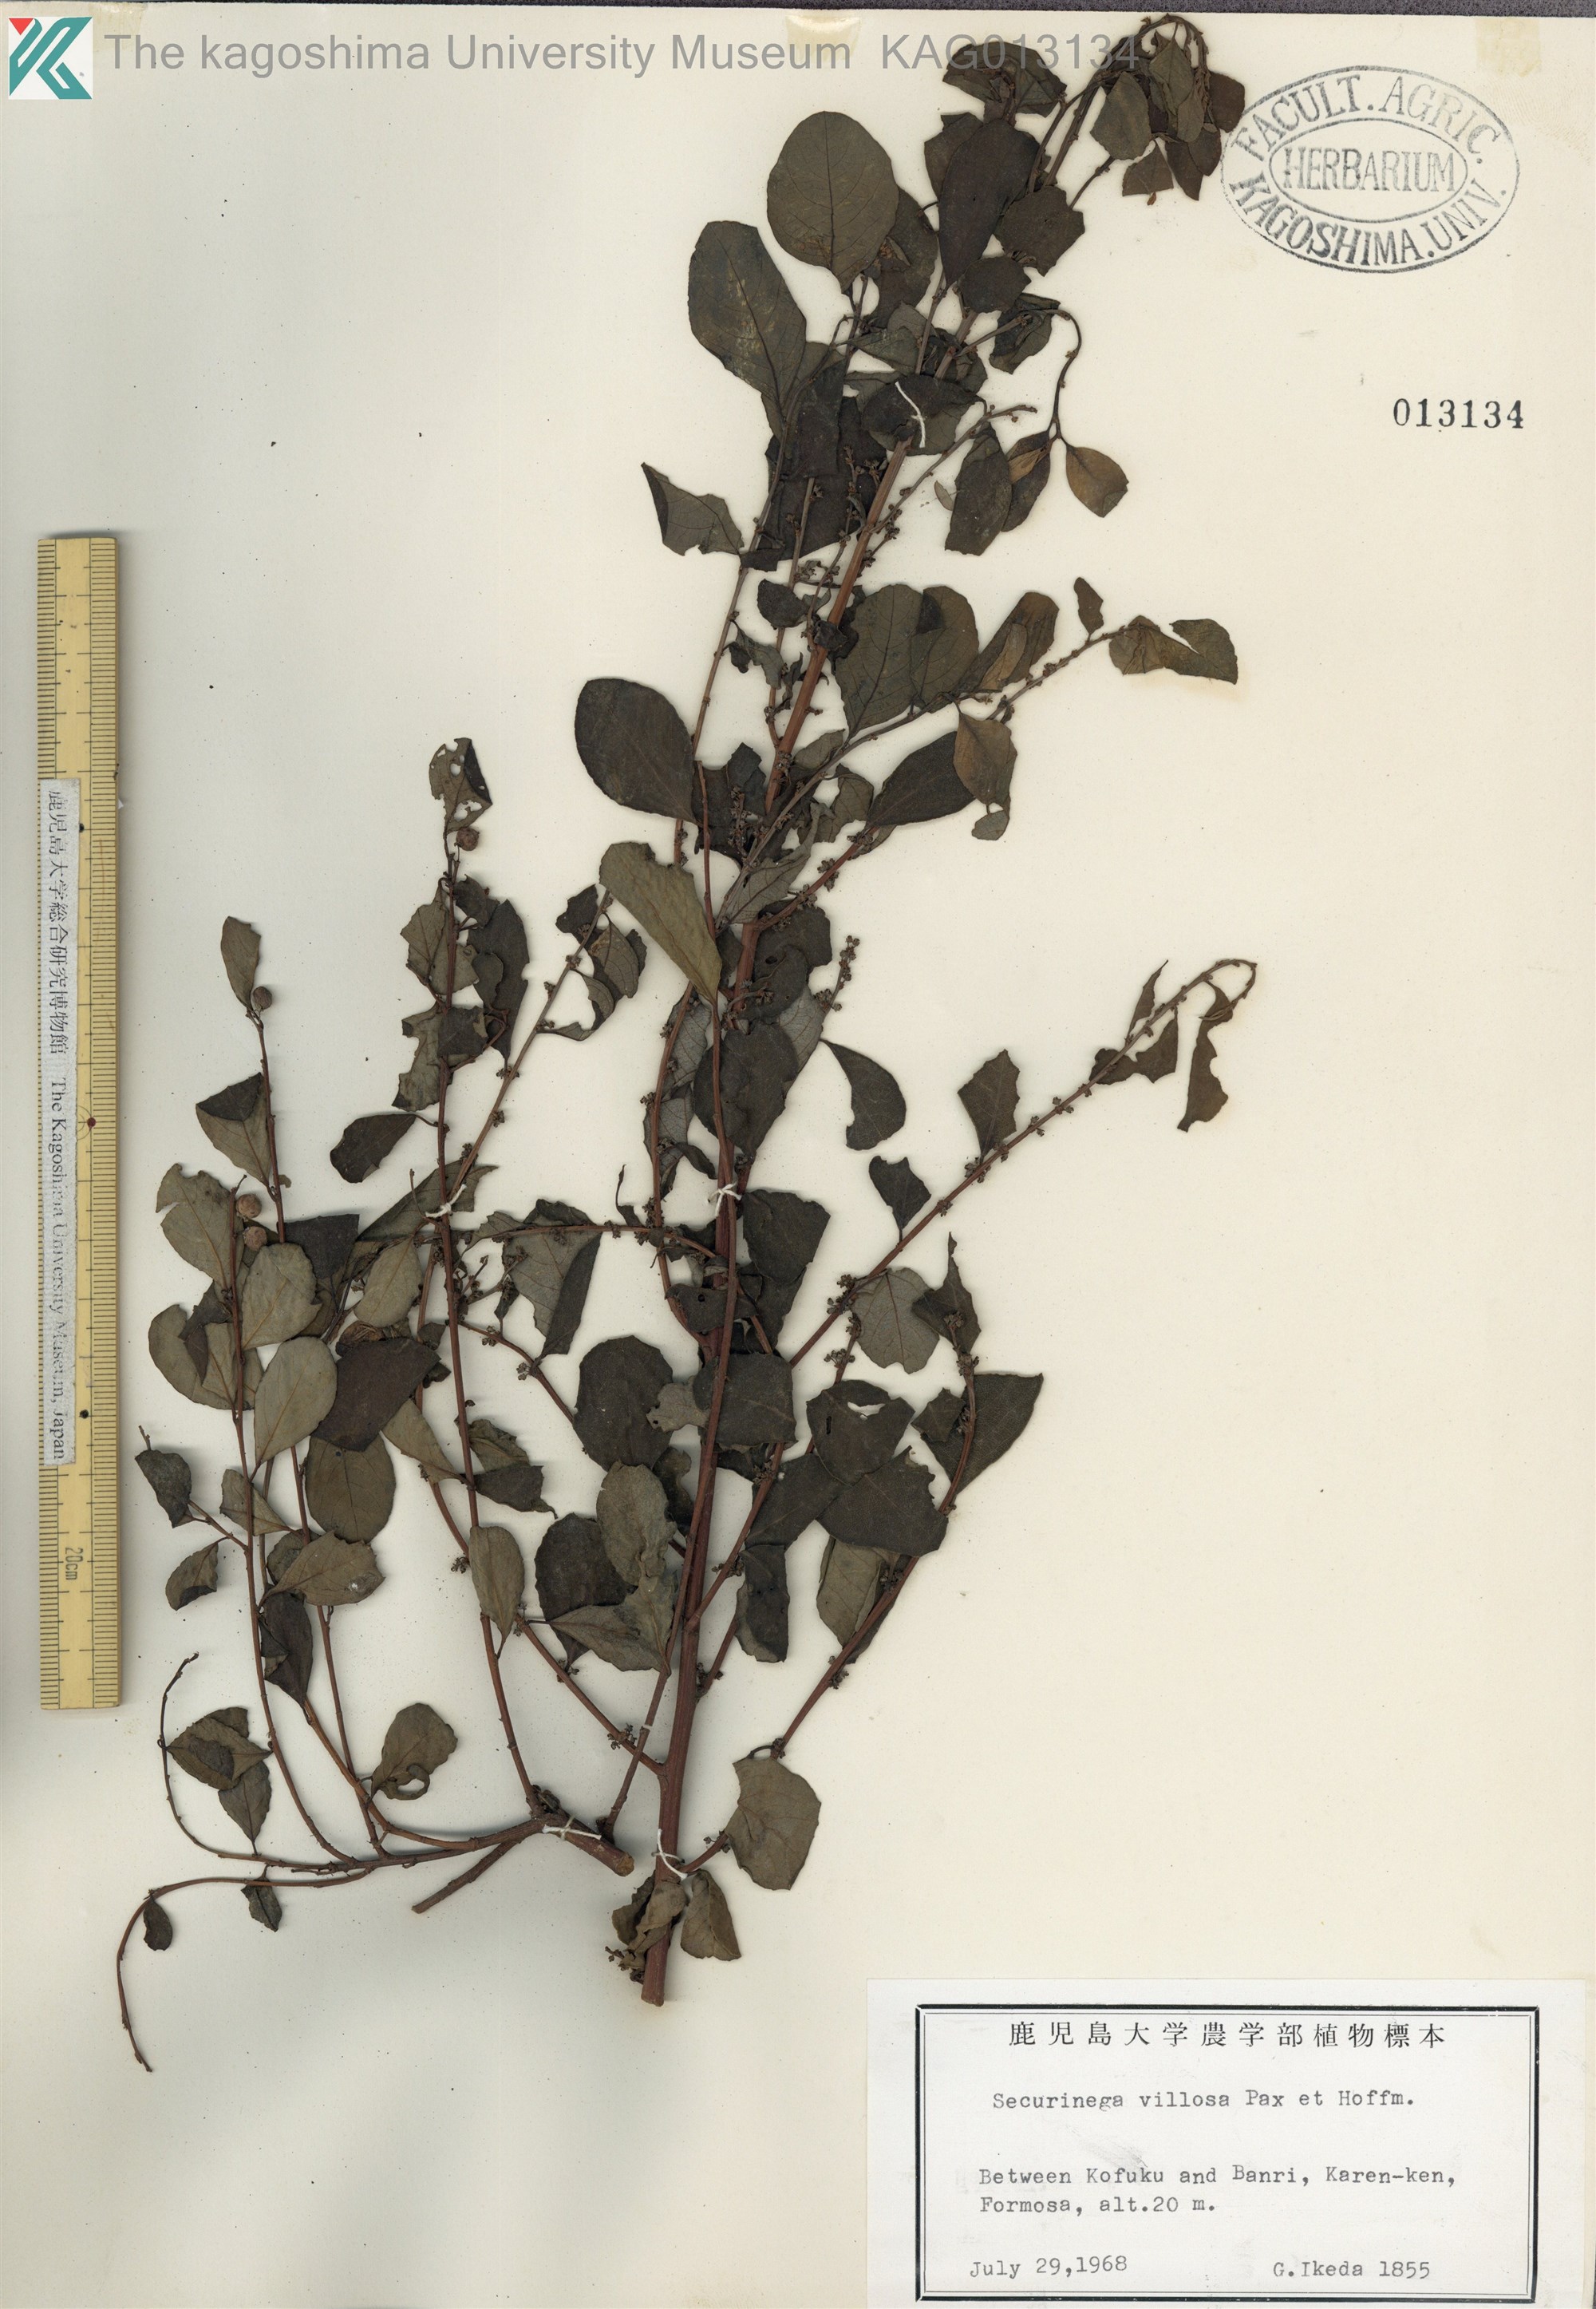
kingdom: Plantae
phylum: Tracheophyta
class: Magnoliopsida
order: Malpighiales
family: Phyllanthaceae
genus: Flueggea
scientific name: Flueggea virosa
